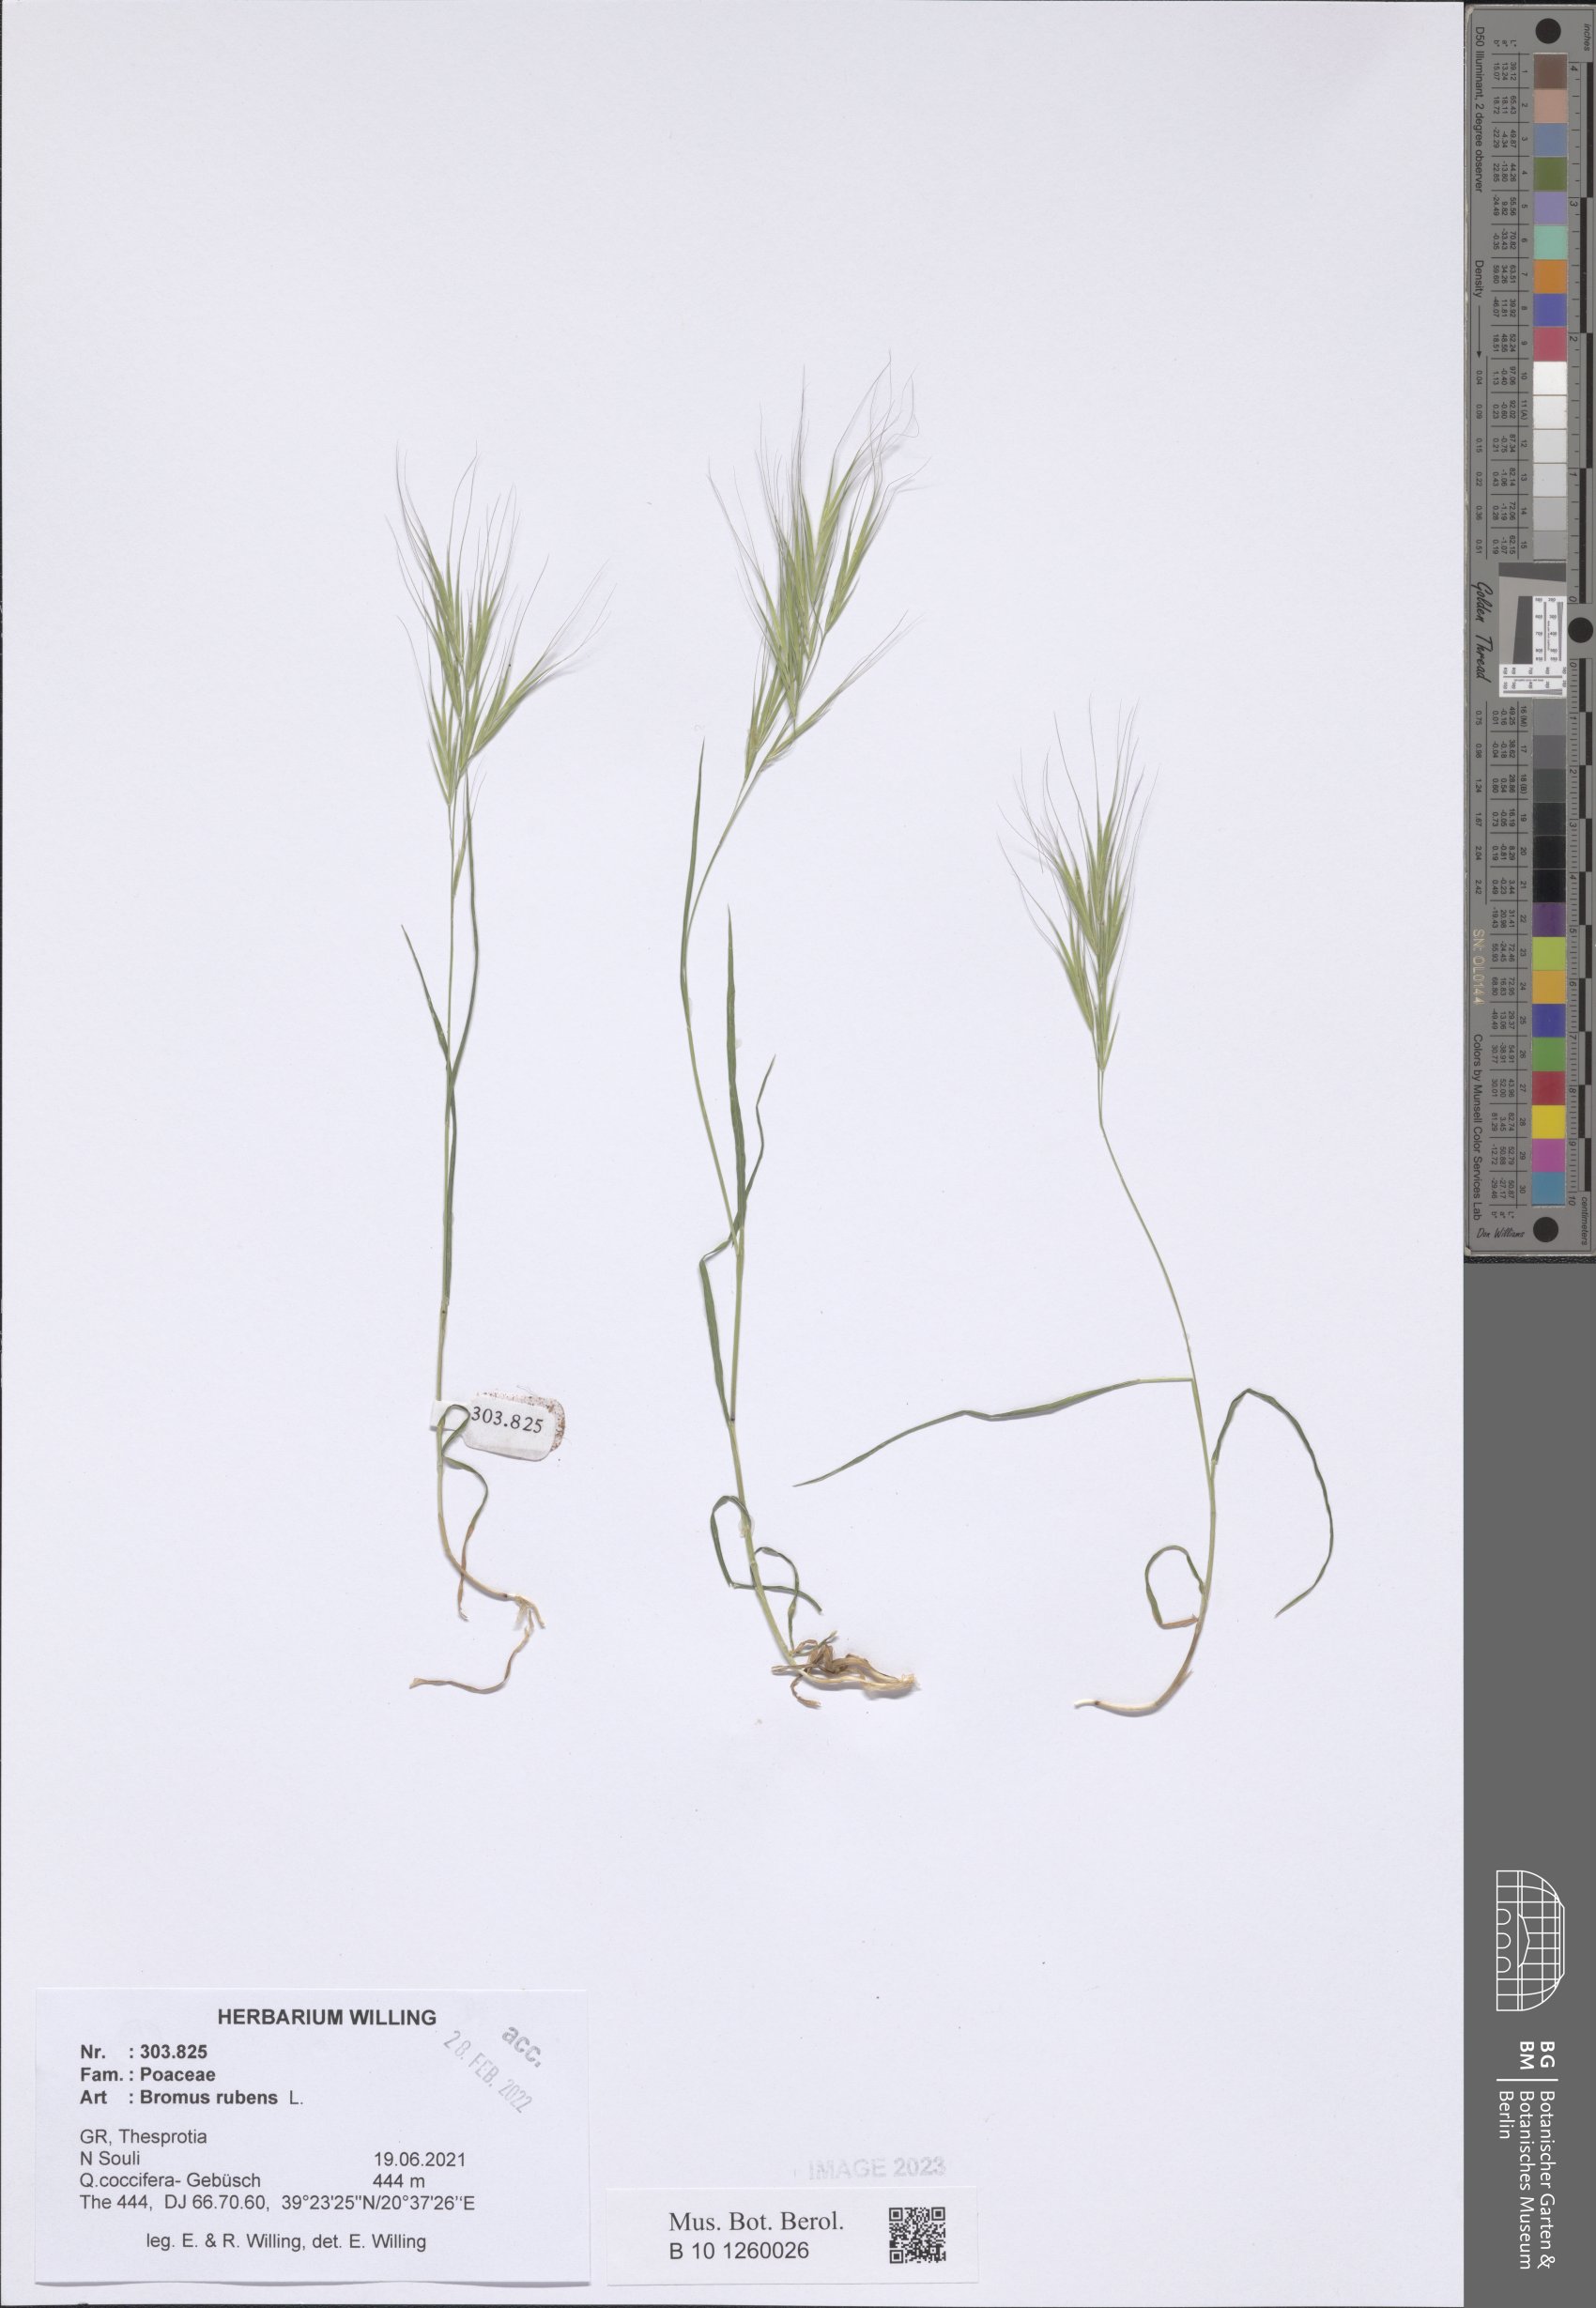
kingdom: Plantae
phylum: Tracheophyta
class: Liliopsida
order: Poales
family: Poaceae
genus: Bromus
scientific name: Bromus rubens
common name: Red brome
